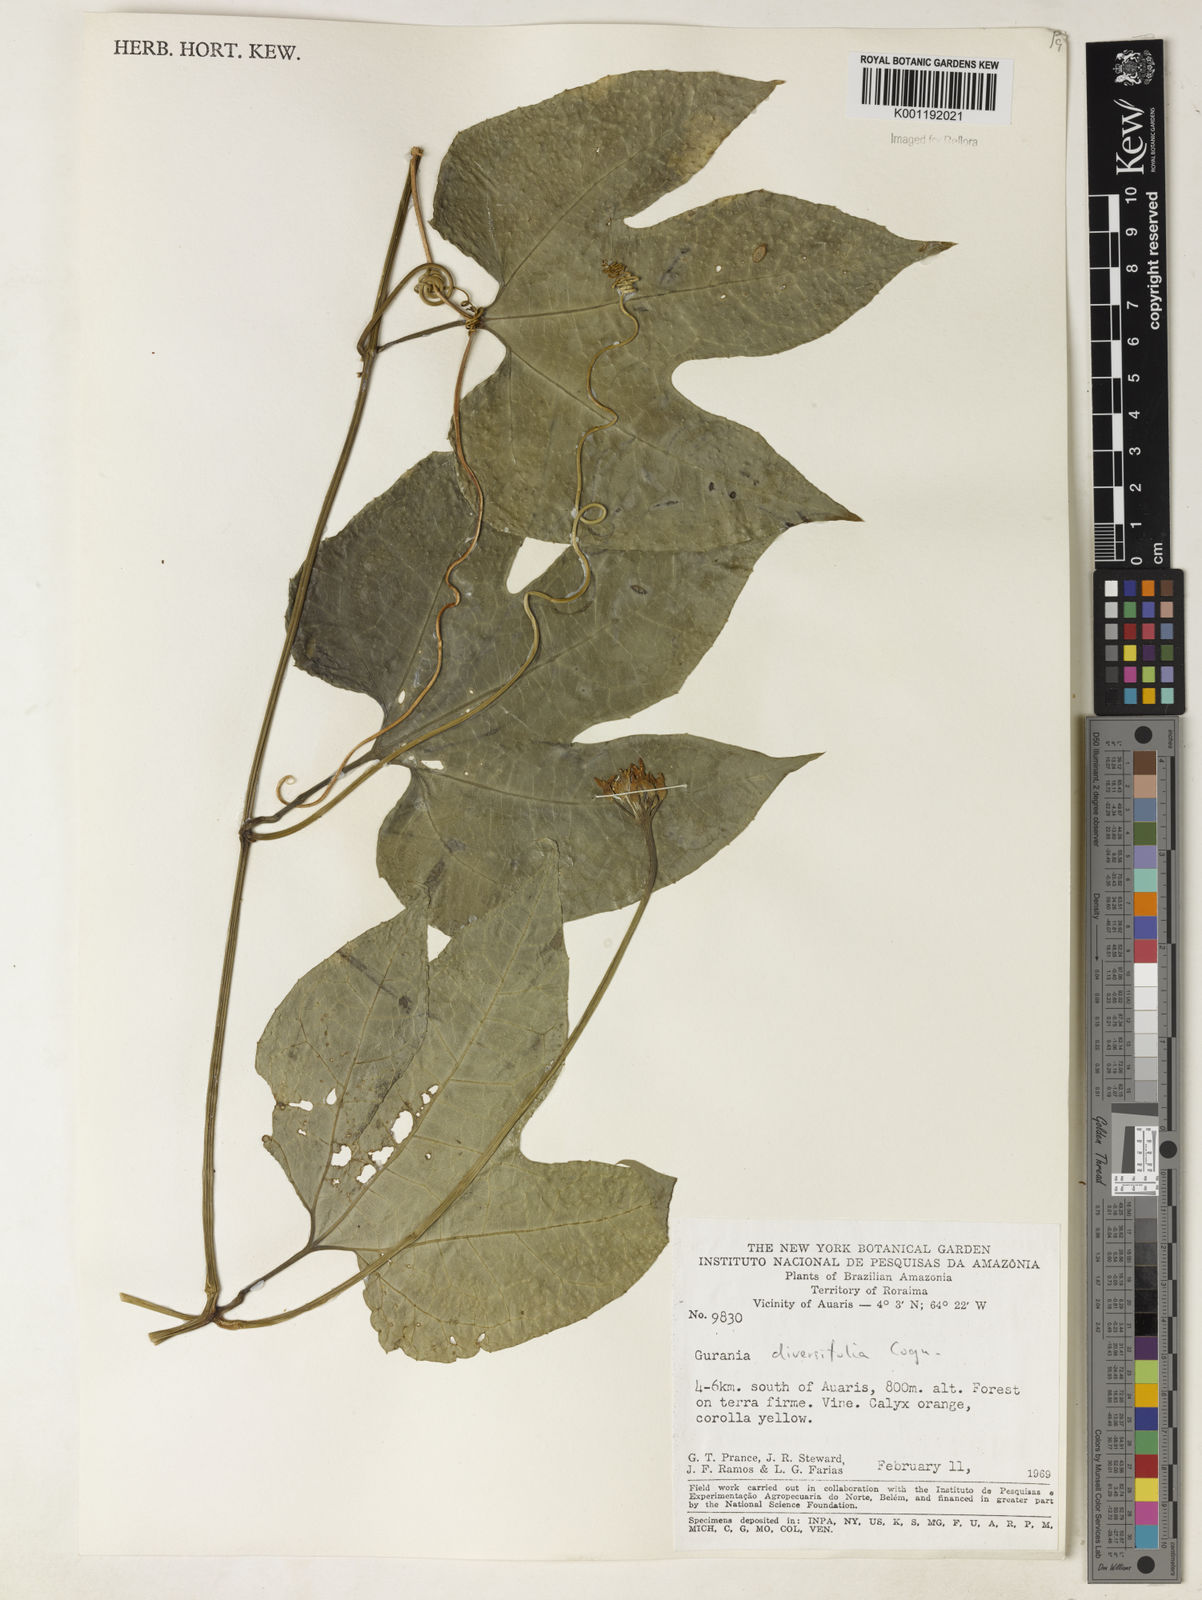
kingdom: Plantae
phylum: Tracheophyta
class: Magnoliopsida
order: Cucurbitales
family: Cucurbitaceae
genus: Gurania
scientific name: Gurania acuminata
